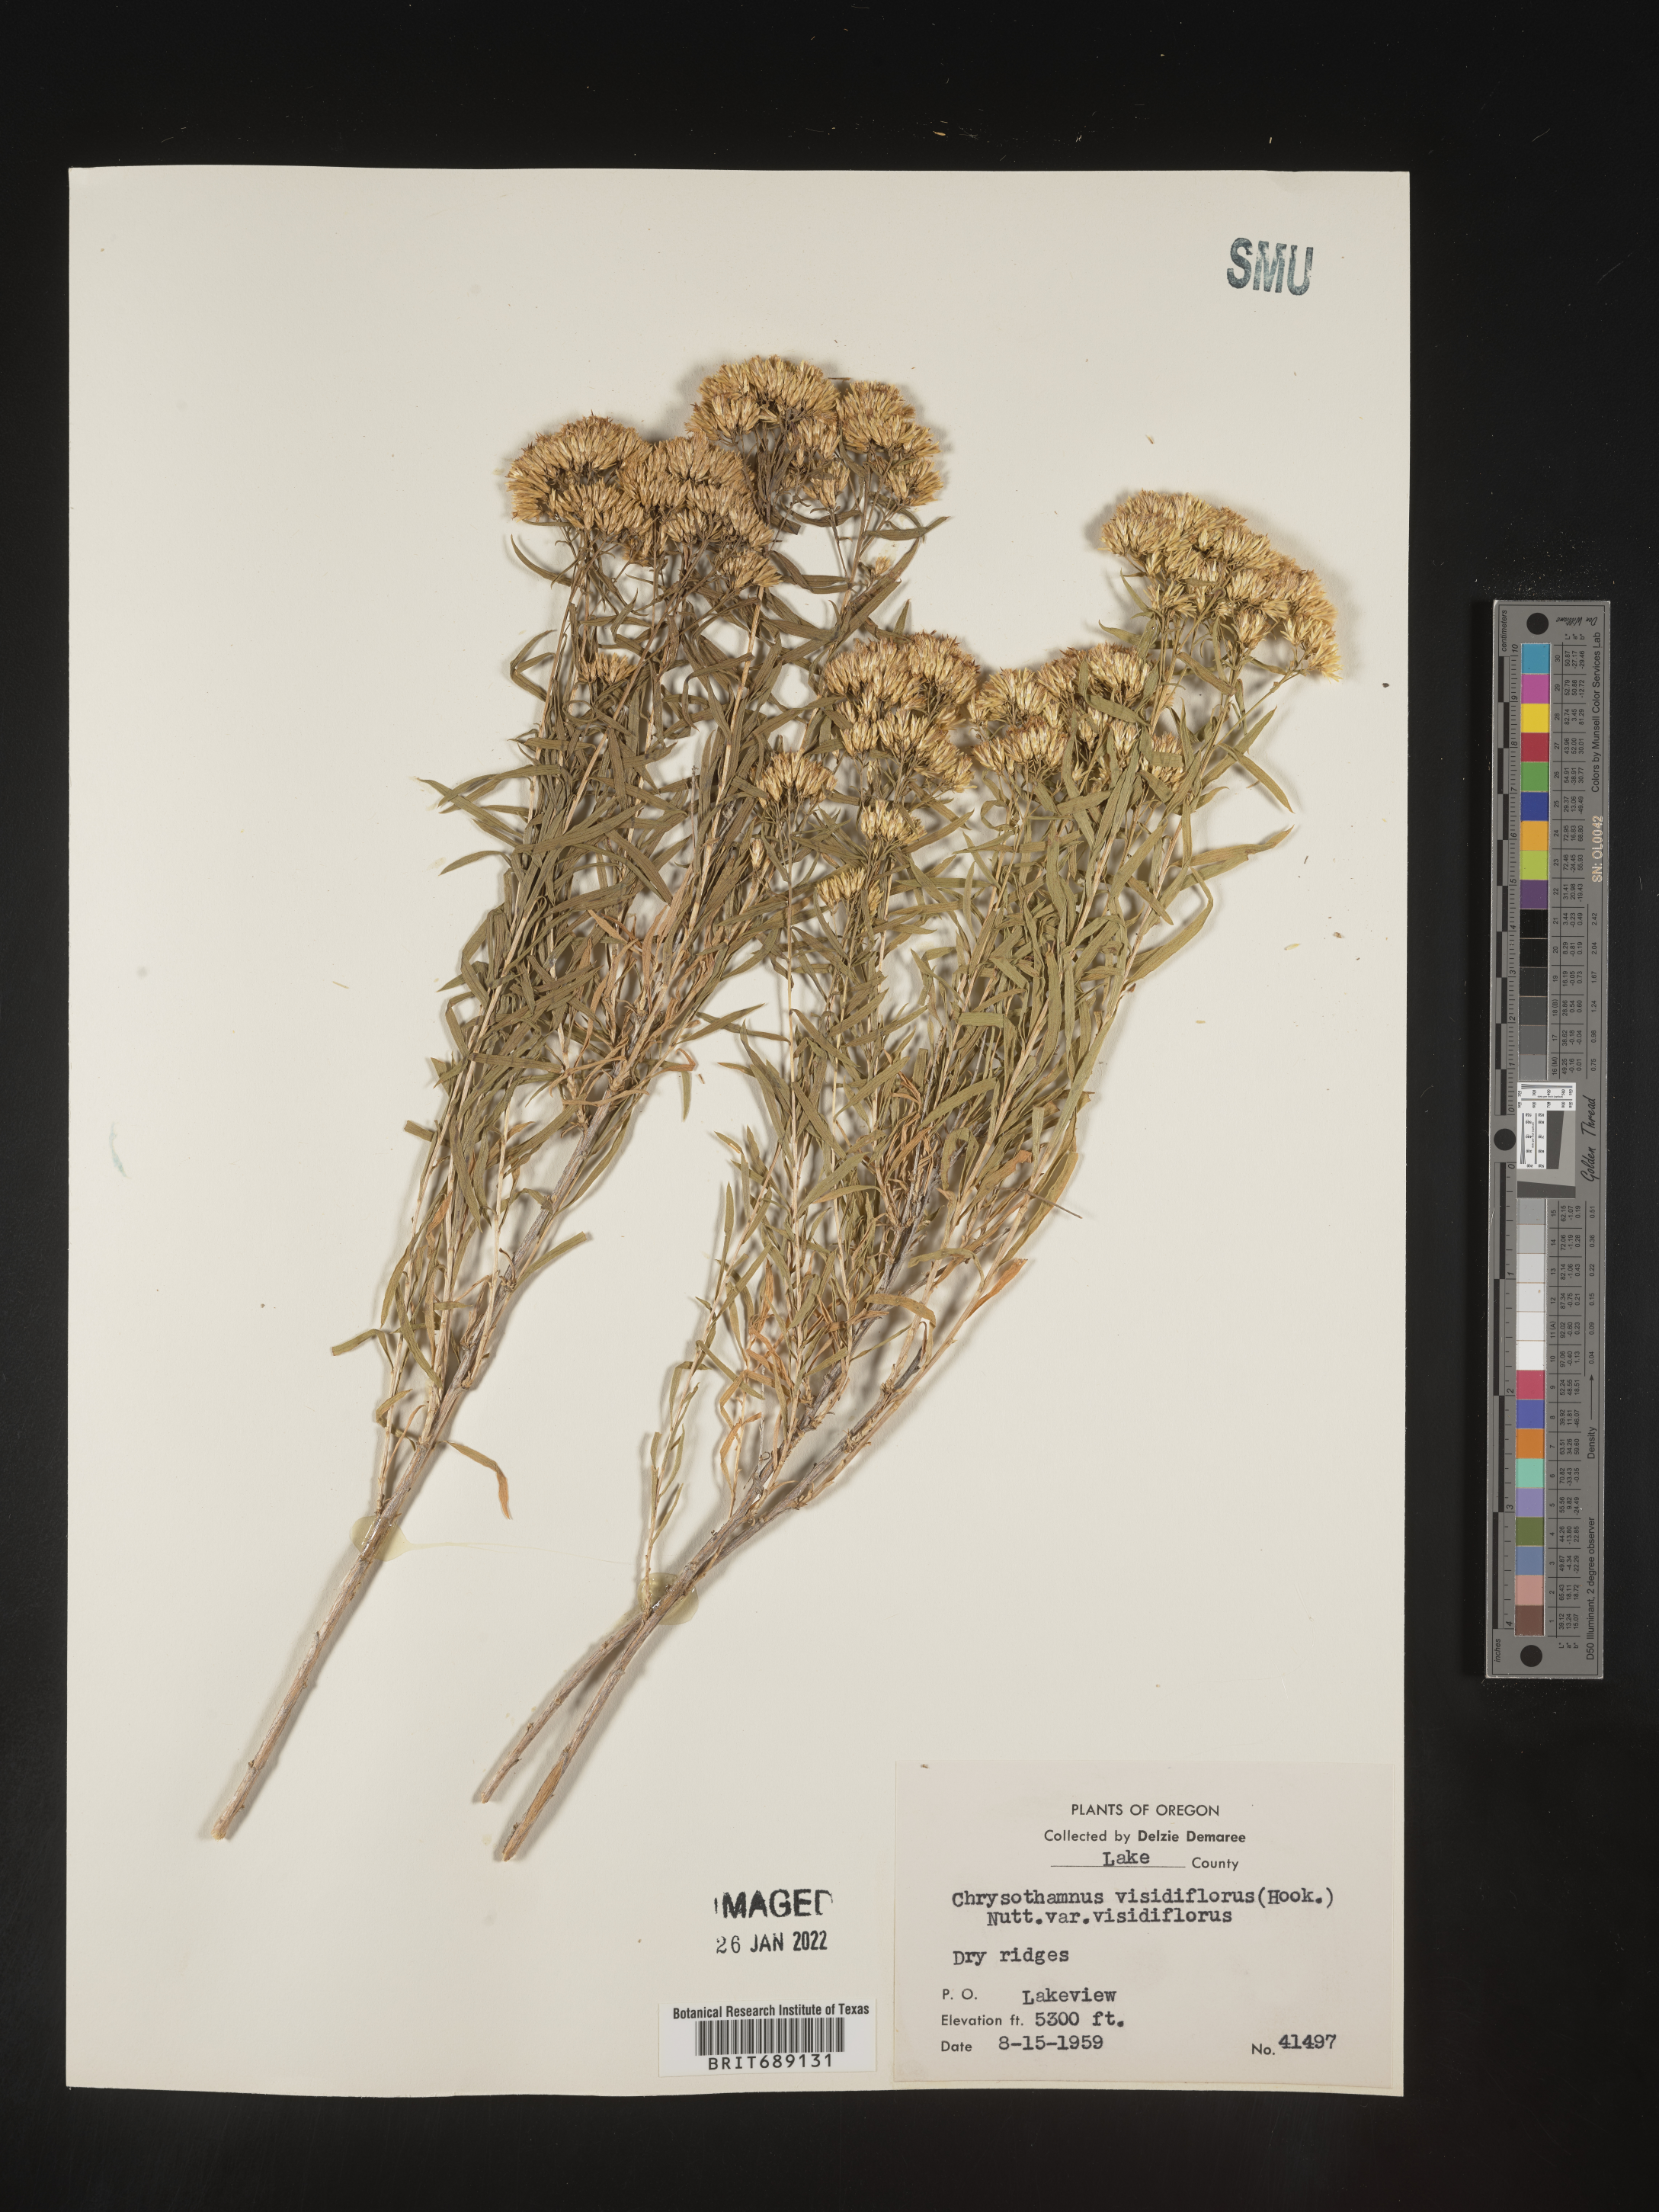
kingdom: Plantae
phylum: Tracheophyta
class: Magnoliopsida
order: Asterales
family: Asteraceae
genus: Chrysothamnus
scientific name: Chrysothamnus viscidiflorus
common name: Yellow rabbitbrush
